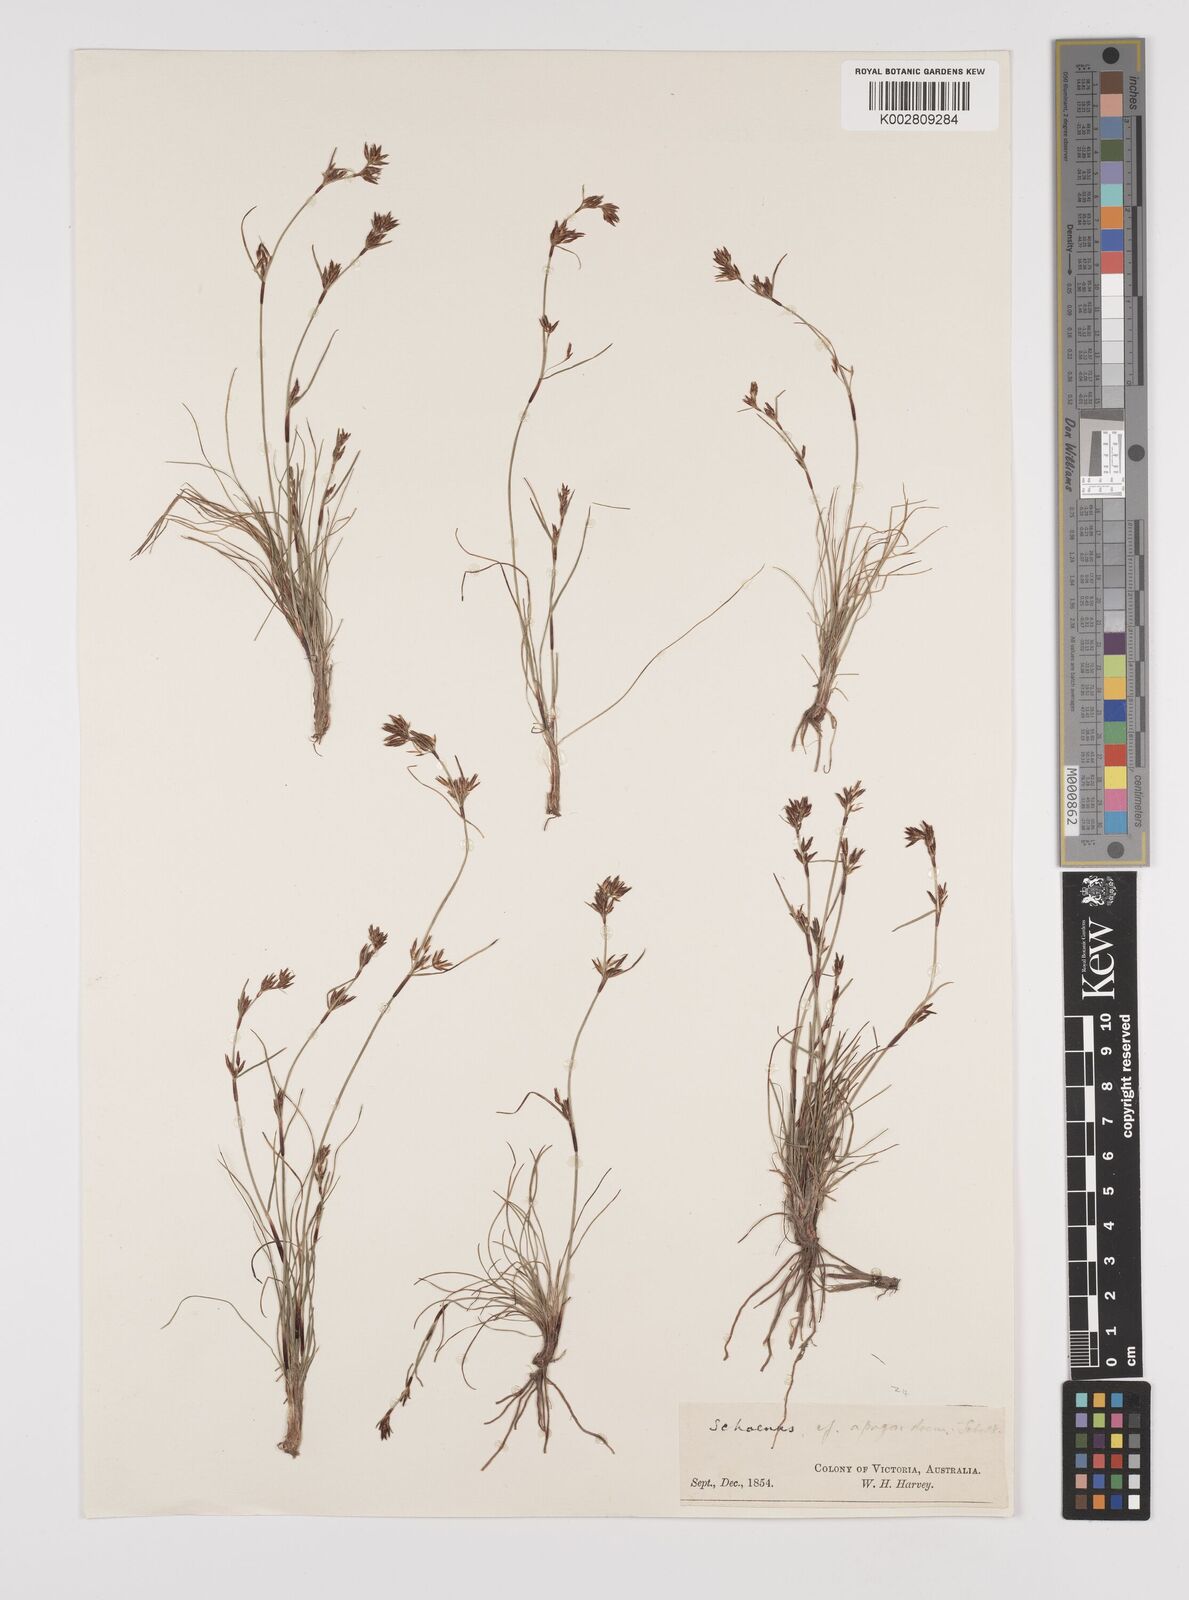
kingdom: Plantae
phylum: Tracheophyta
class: Liliopsida
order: Poales
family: Cyperaceae
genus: Schoenus
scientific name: Schoenus apogon
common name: Smooth bogrush
